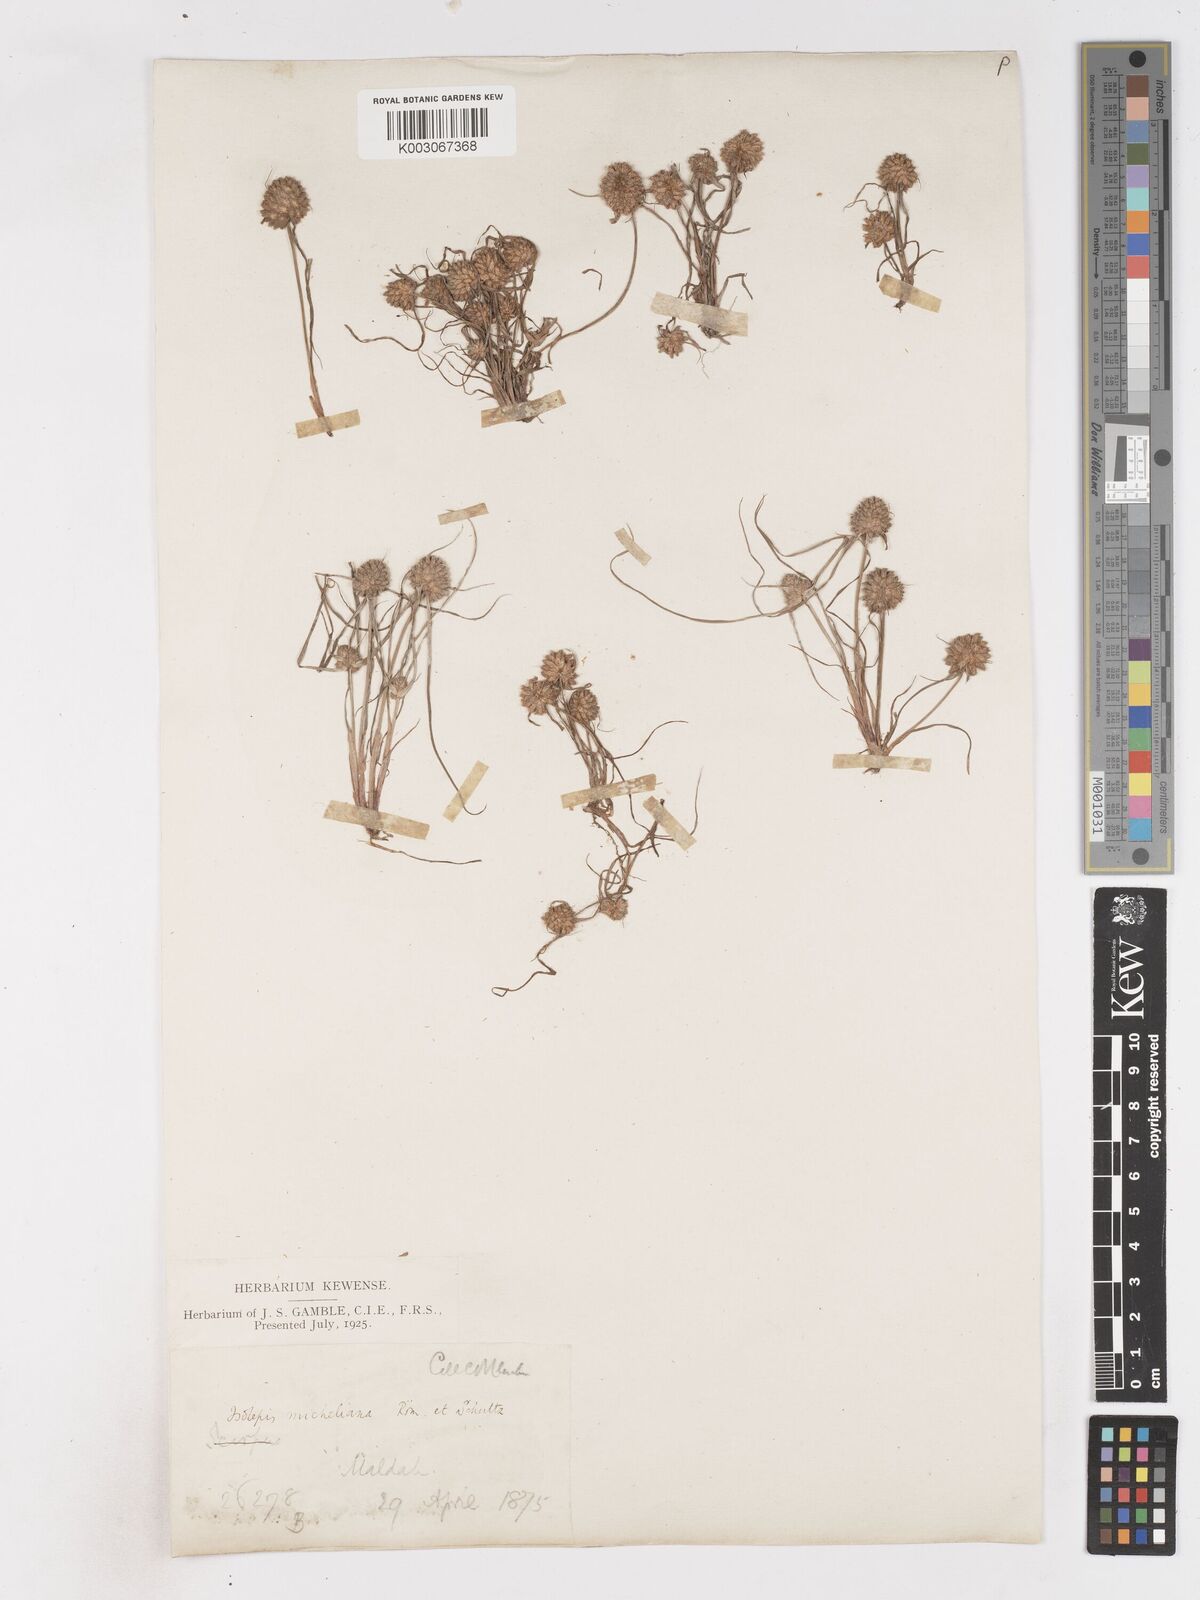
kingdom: Plantae
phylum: Tracheophyta
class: Liliopsida
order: Poales
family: Cyperaceae
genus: Cyperus
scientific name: Cyperus michelianus
